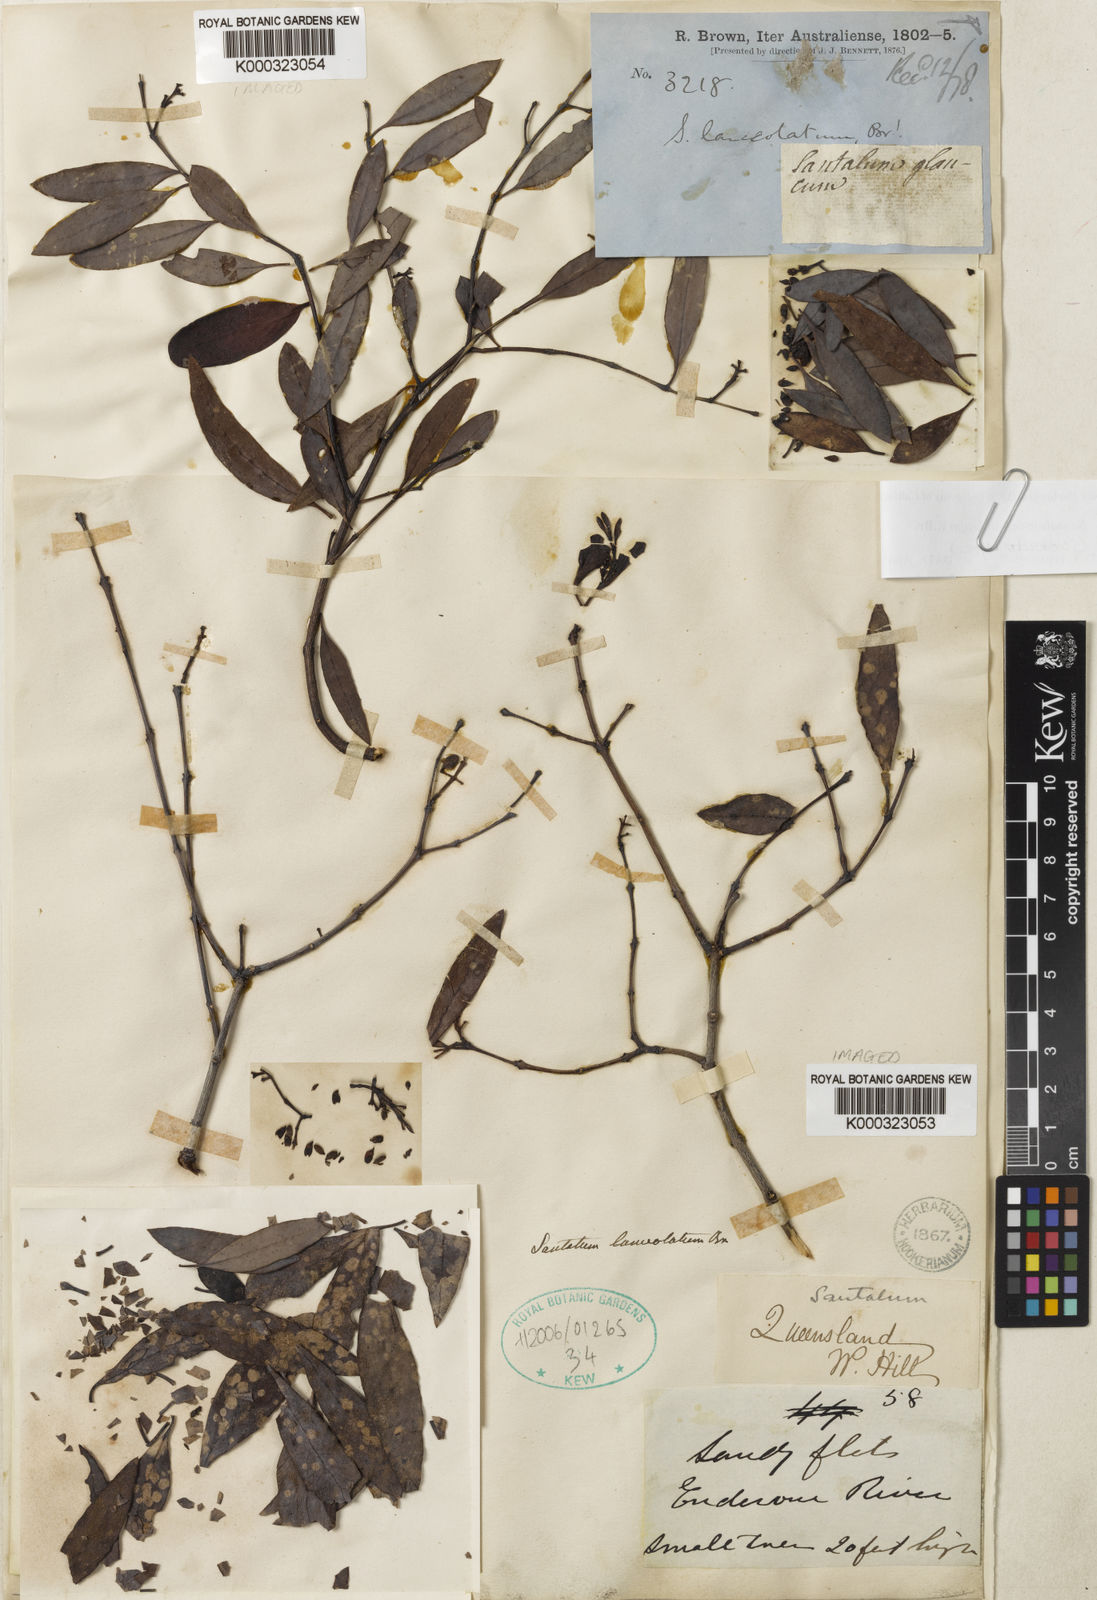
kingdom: Plantae
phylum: Tracheophyta
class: Polypodiopsida
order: Polypodiales
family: Thelypteridaceae
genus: Amauropelta
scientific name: Amauropelta raddii
